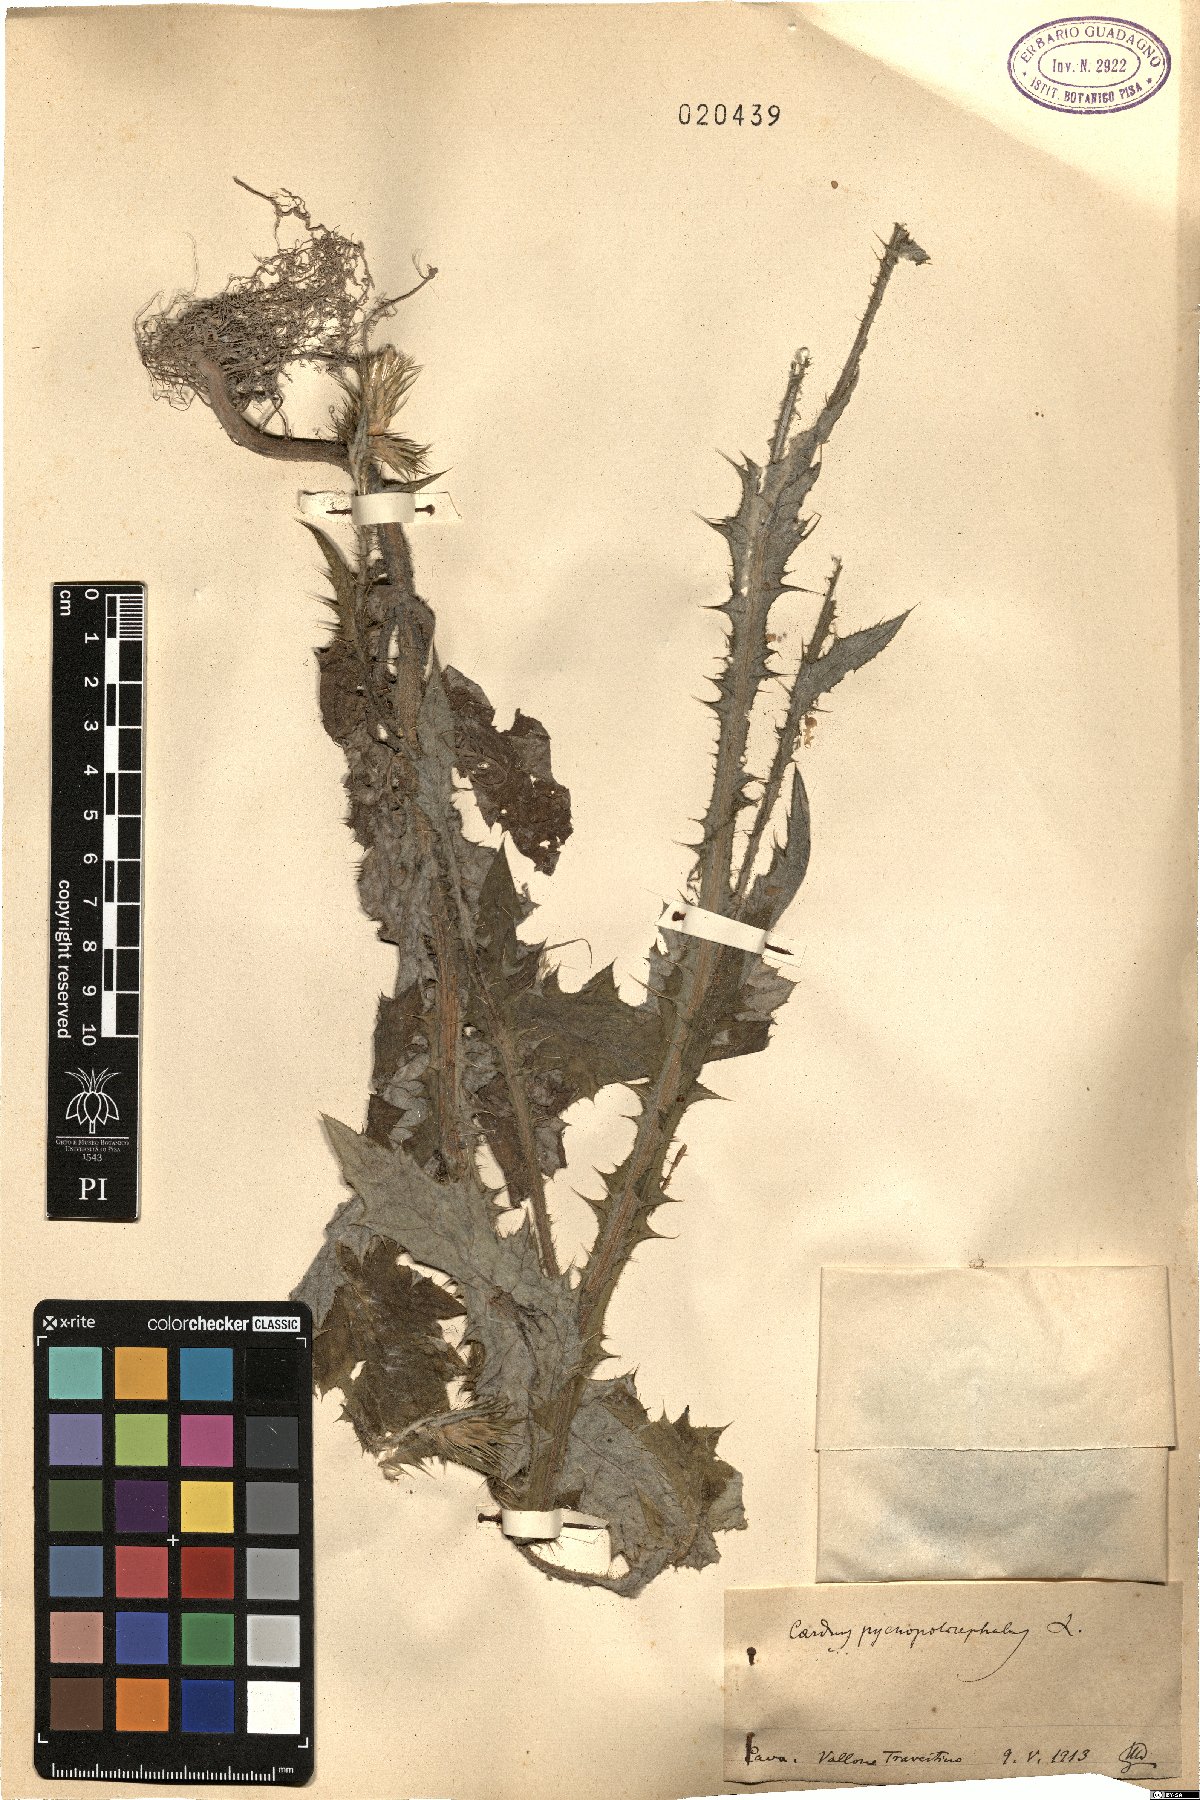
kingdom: Plantae
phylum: Tracheophyta
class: Magnoliopsida
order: Asterales
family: Asteraceae
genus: Carduus
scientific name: Carduus pycnocephalus
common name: Plymouth thistle
